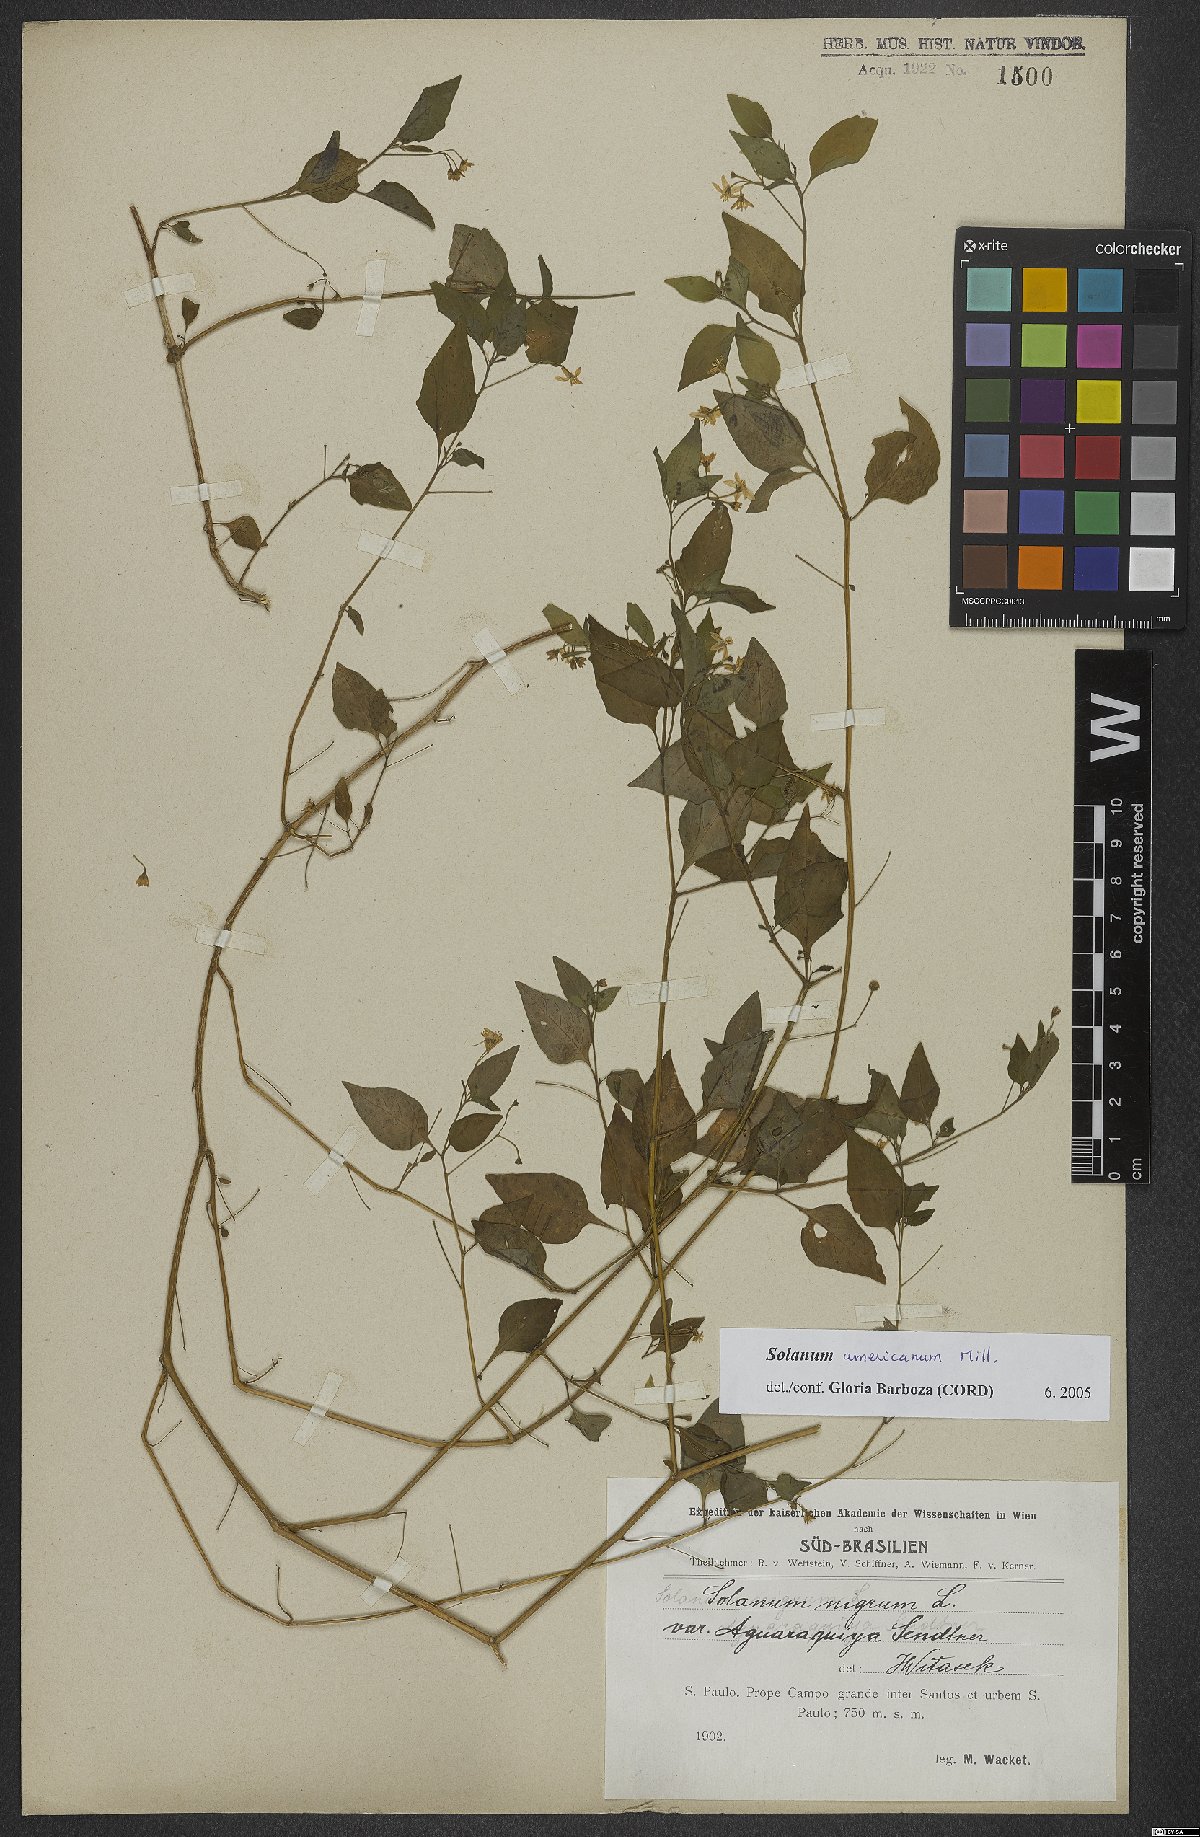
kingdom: Plantae
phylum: Tracheophyta
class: Magnoliopsida
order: Solanales
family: Solanaceae
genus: Solanum
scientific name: Solanum americanum
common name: American black nightshade
